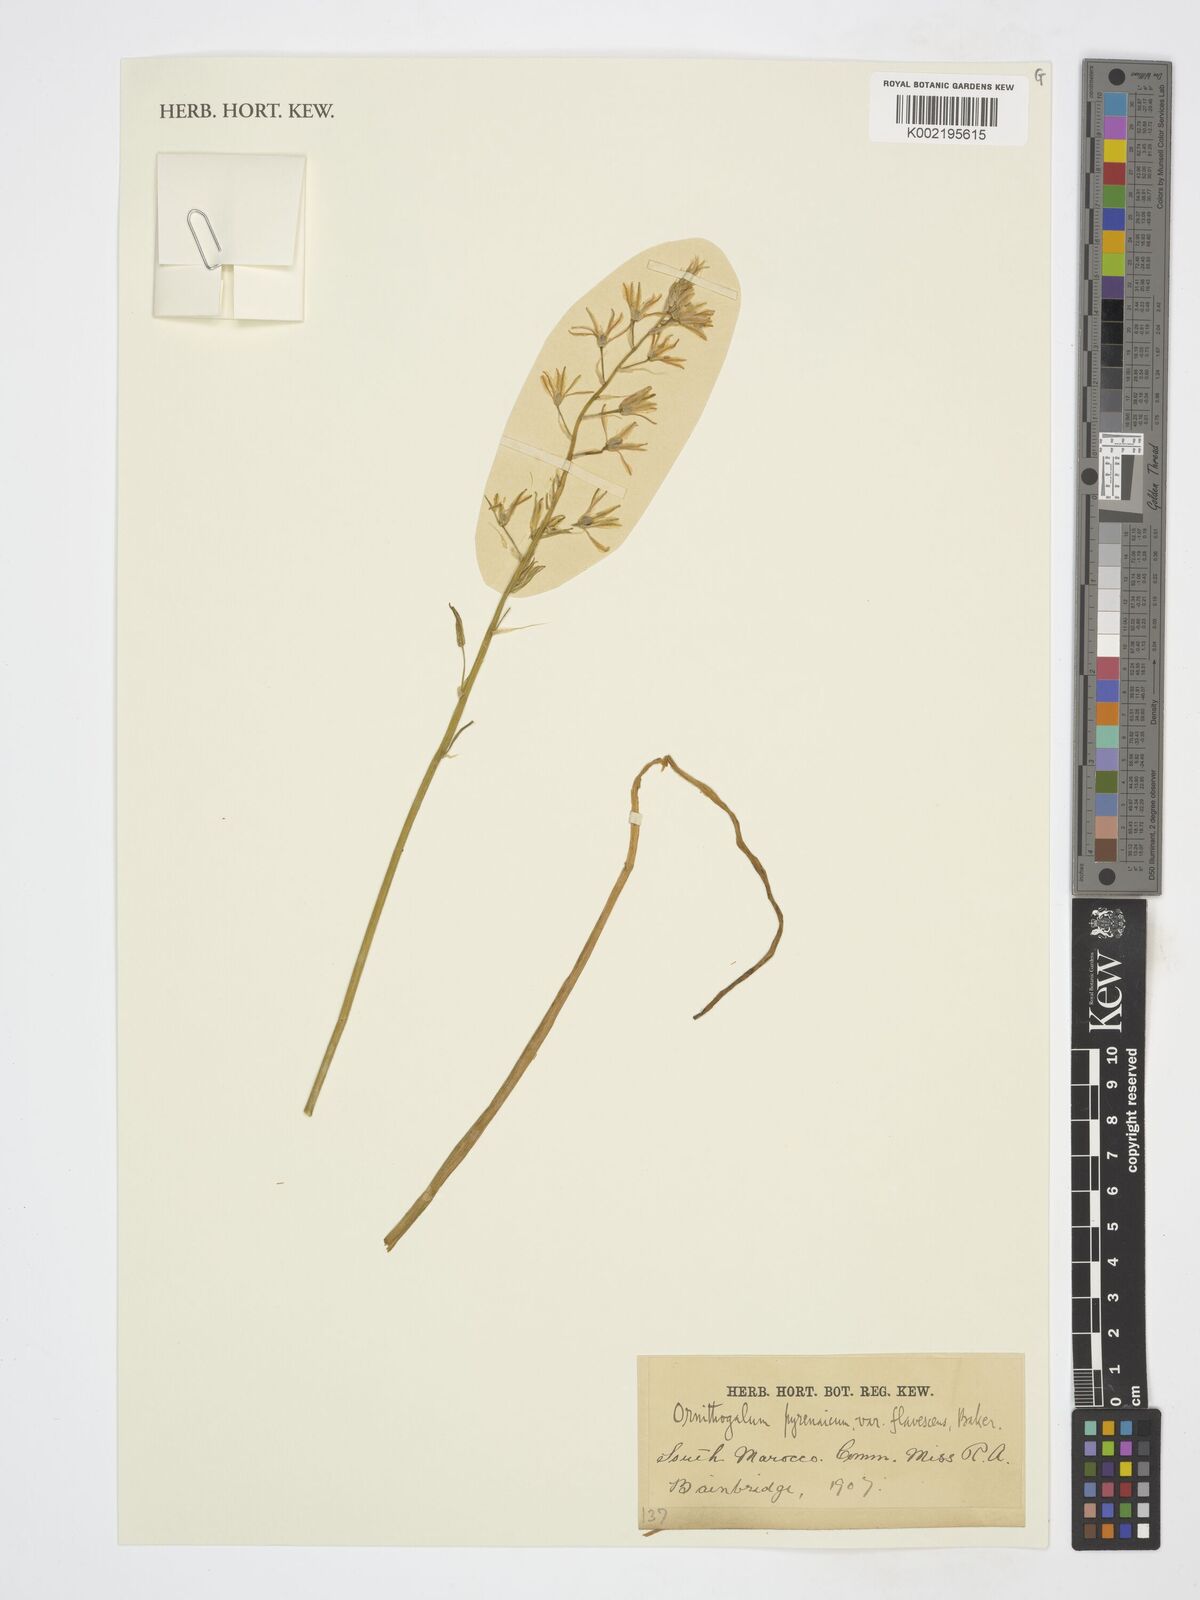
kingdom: Plantae
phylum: Tracheophyta
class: Liliopsida
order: Asparagales
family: Asparagaceae
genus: Ornithogalum
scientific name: Ornithogalum pyrenaicum
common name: Spiked star-of-bethlehem
